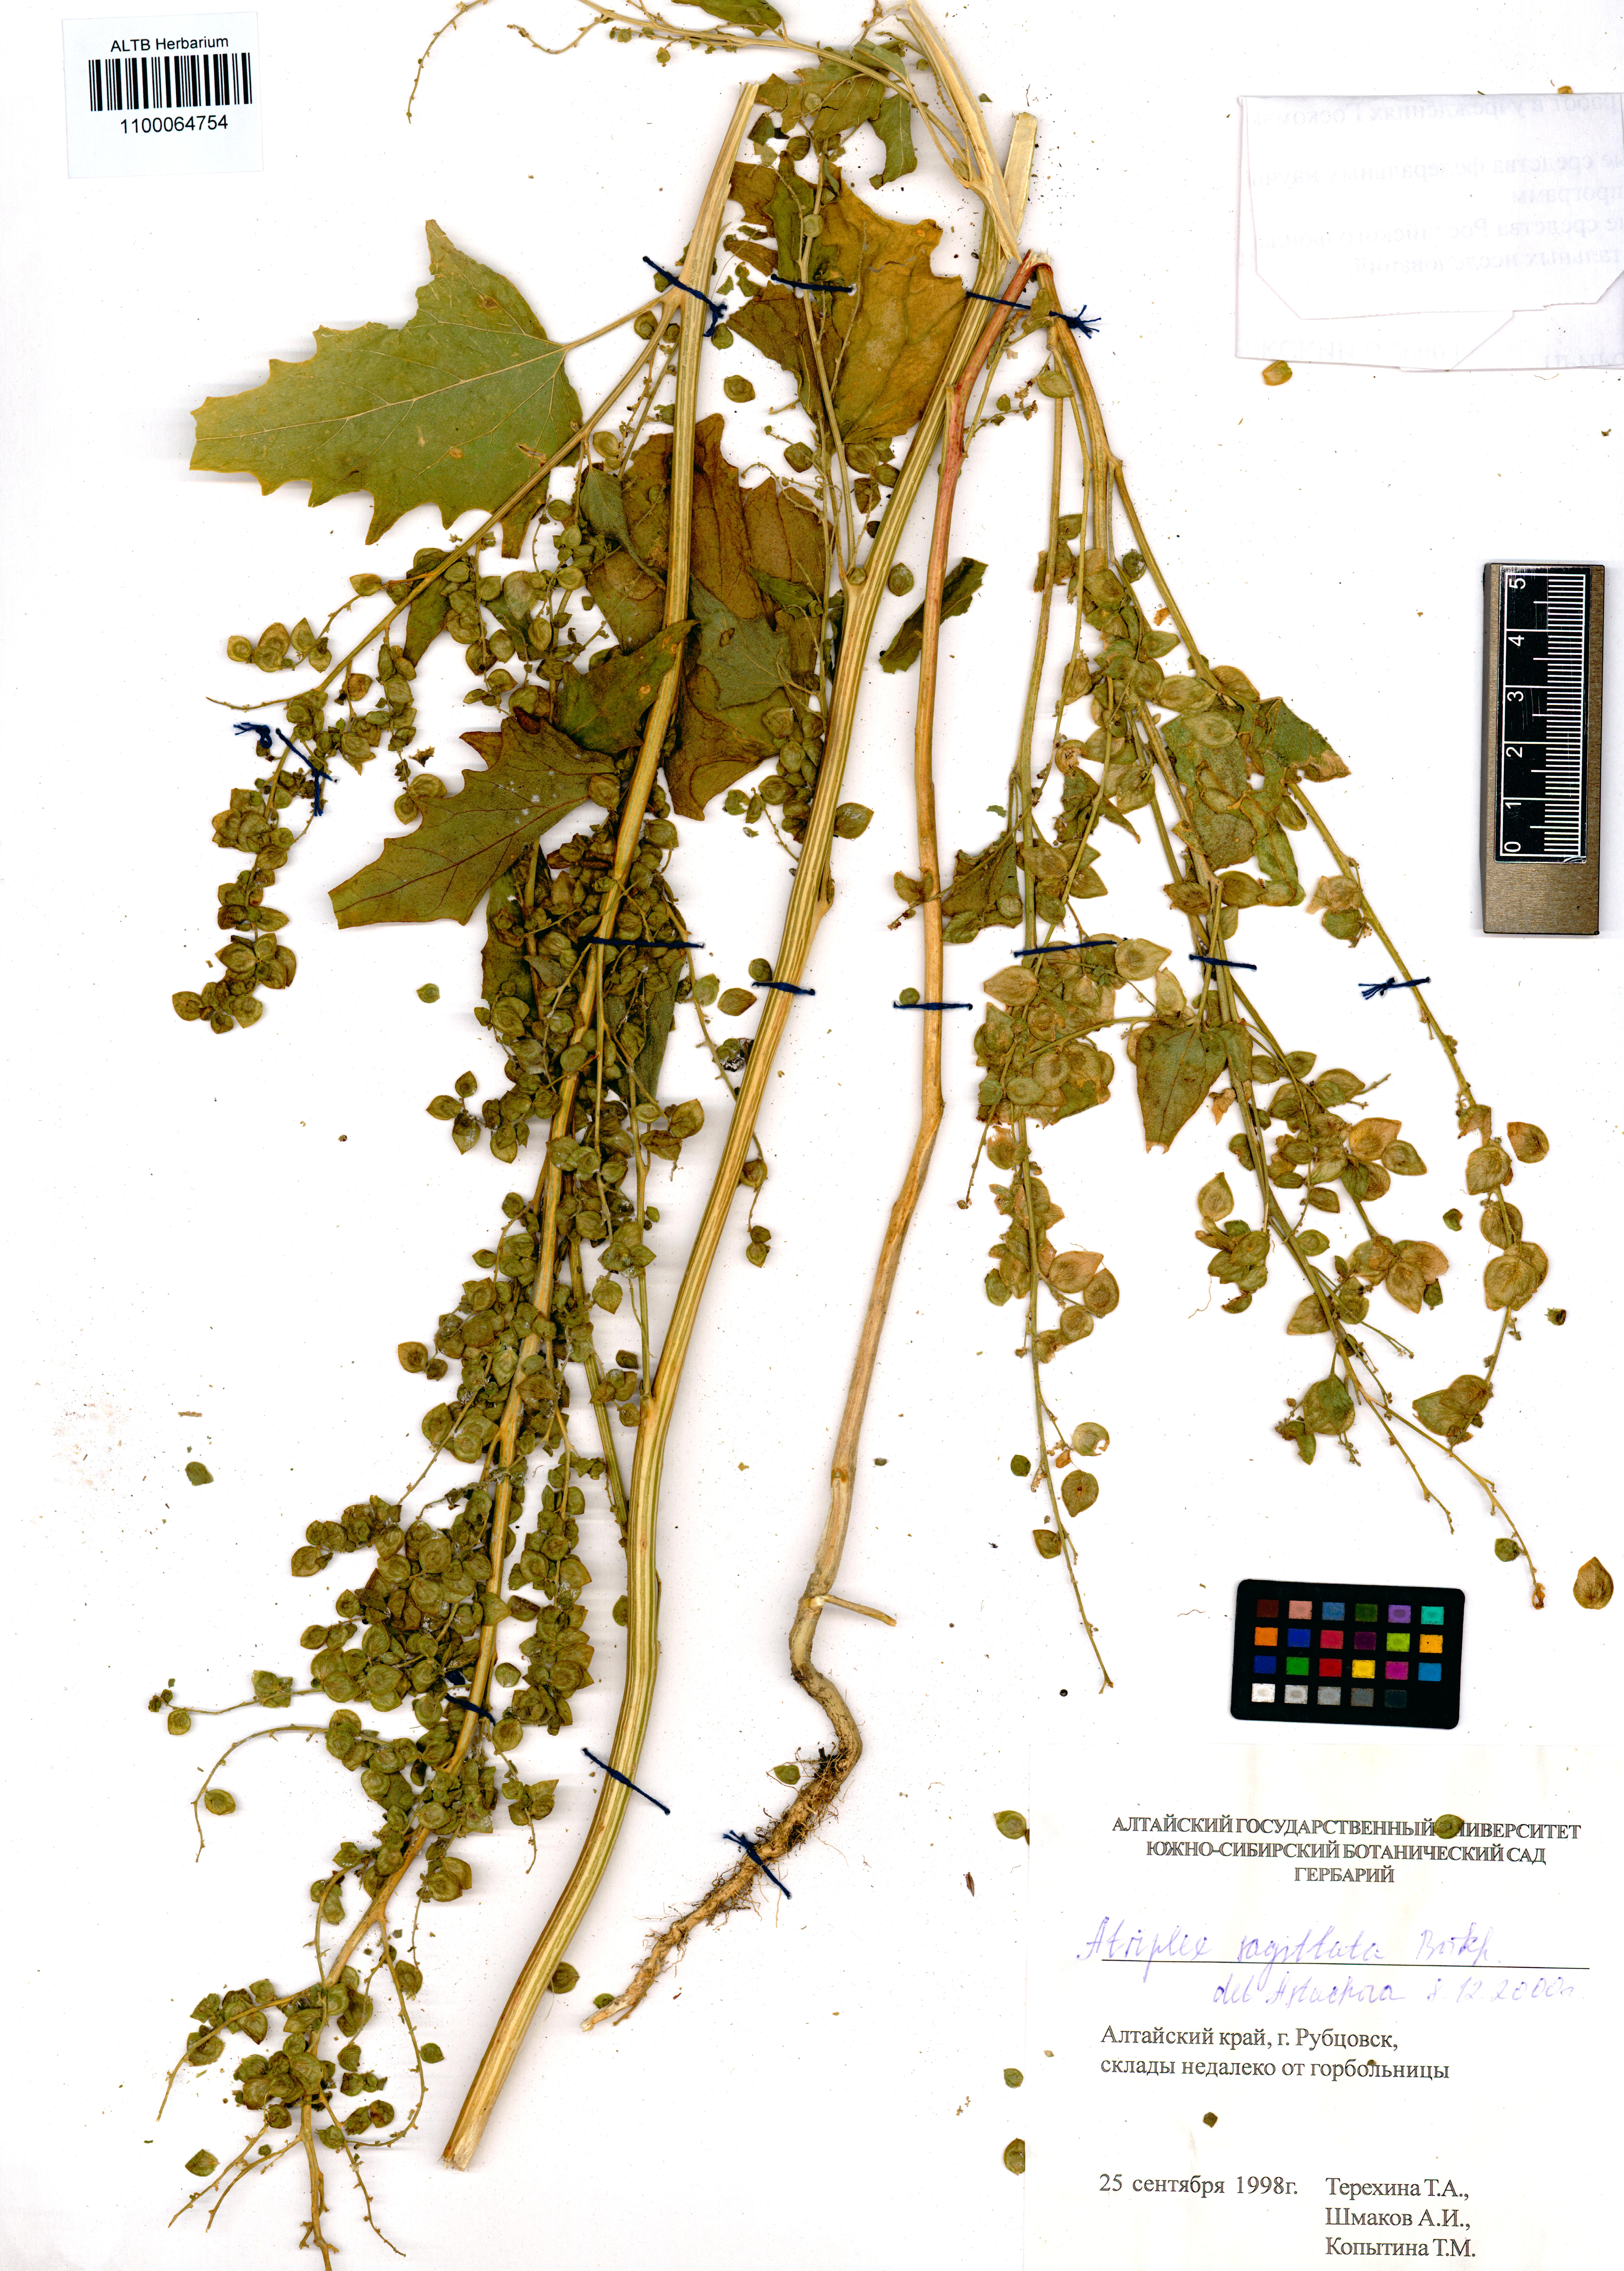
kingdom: Plantae
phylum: Tracheophyta
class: Magnoliopsida
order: Caryophyllales
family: Amaranthaceae
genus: Atriplex
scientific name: Atriplex sagittata
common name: Purple orache
